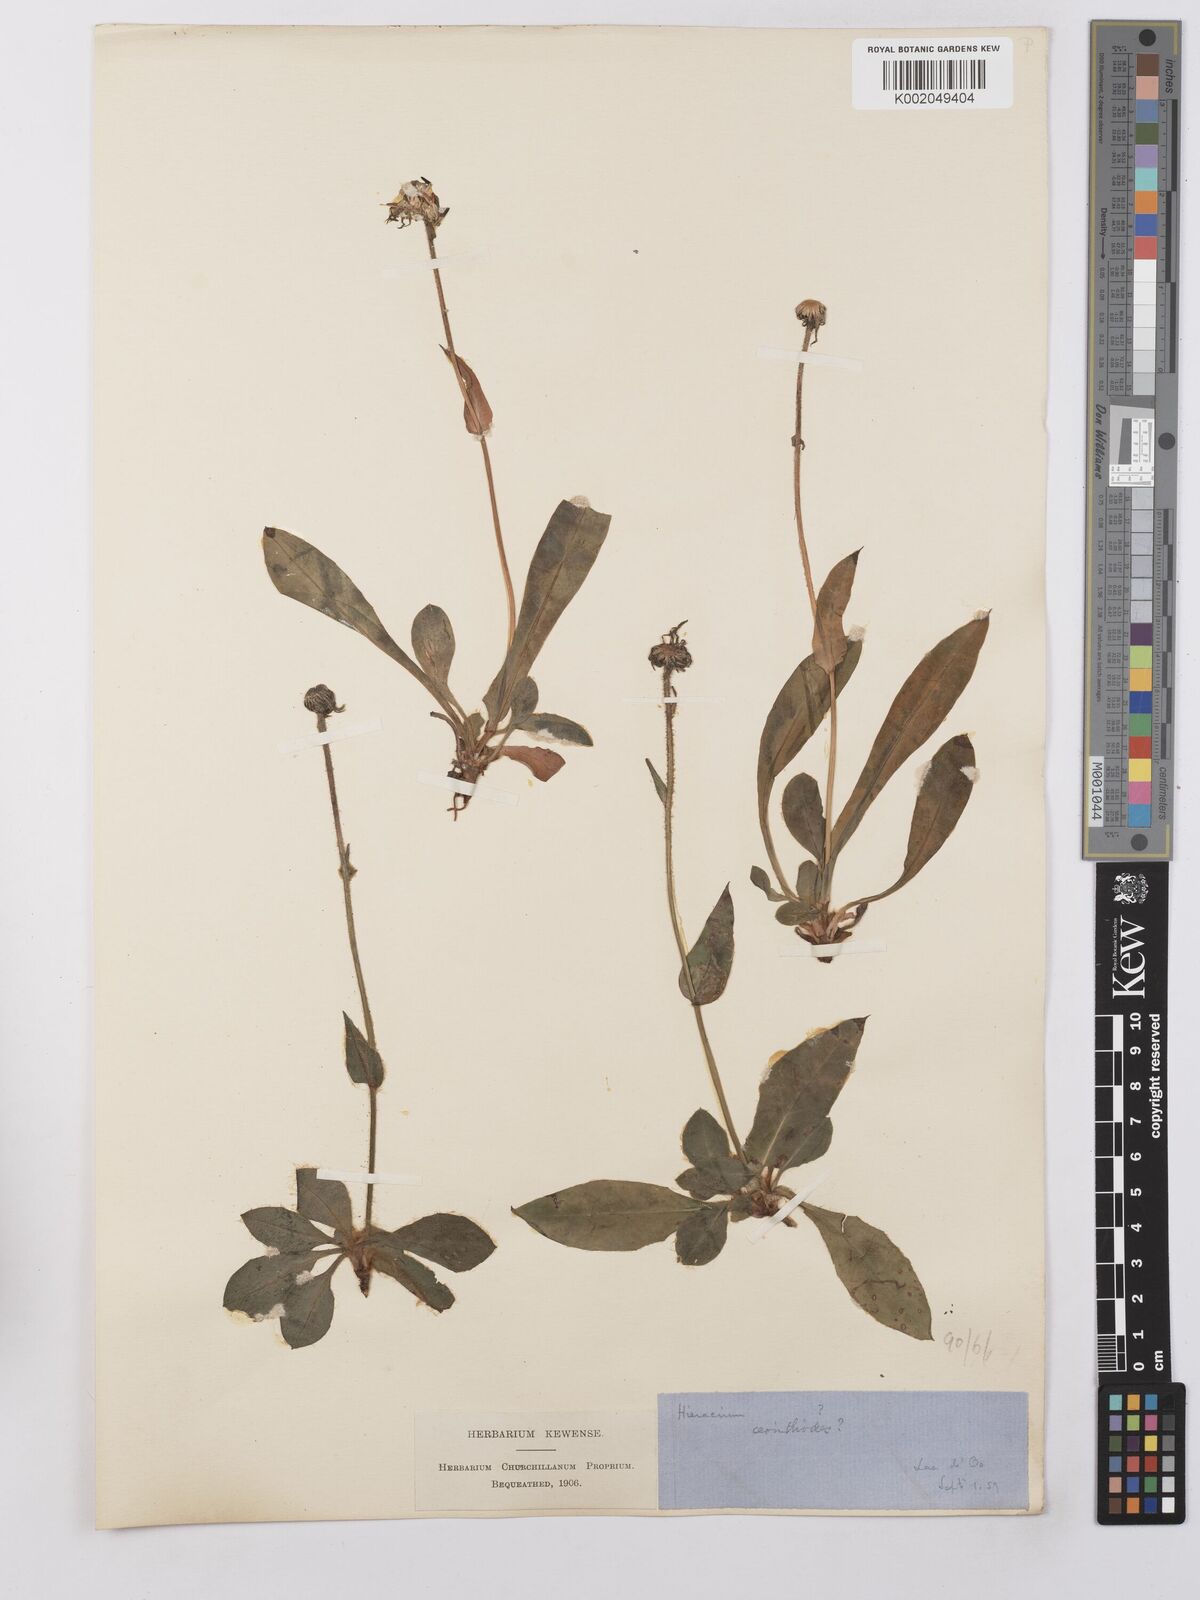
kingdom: Plantae
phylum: Tracheophyta
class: Magnoliopsida
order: Asterales
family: Asteraceae
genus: Hieracium
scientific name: Hieracium cerinthoides
